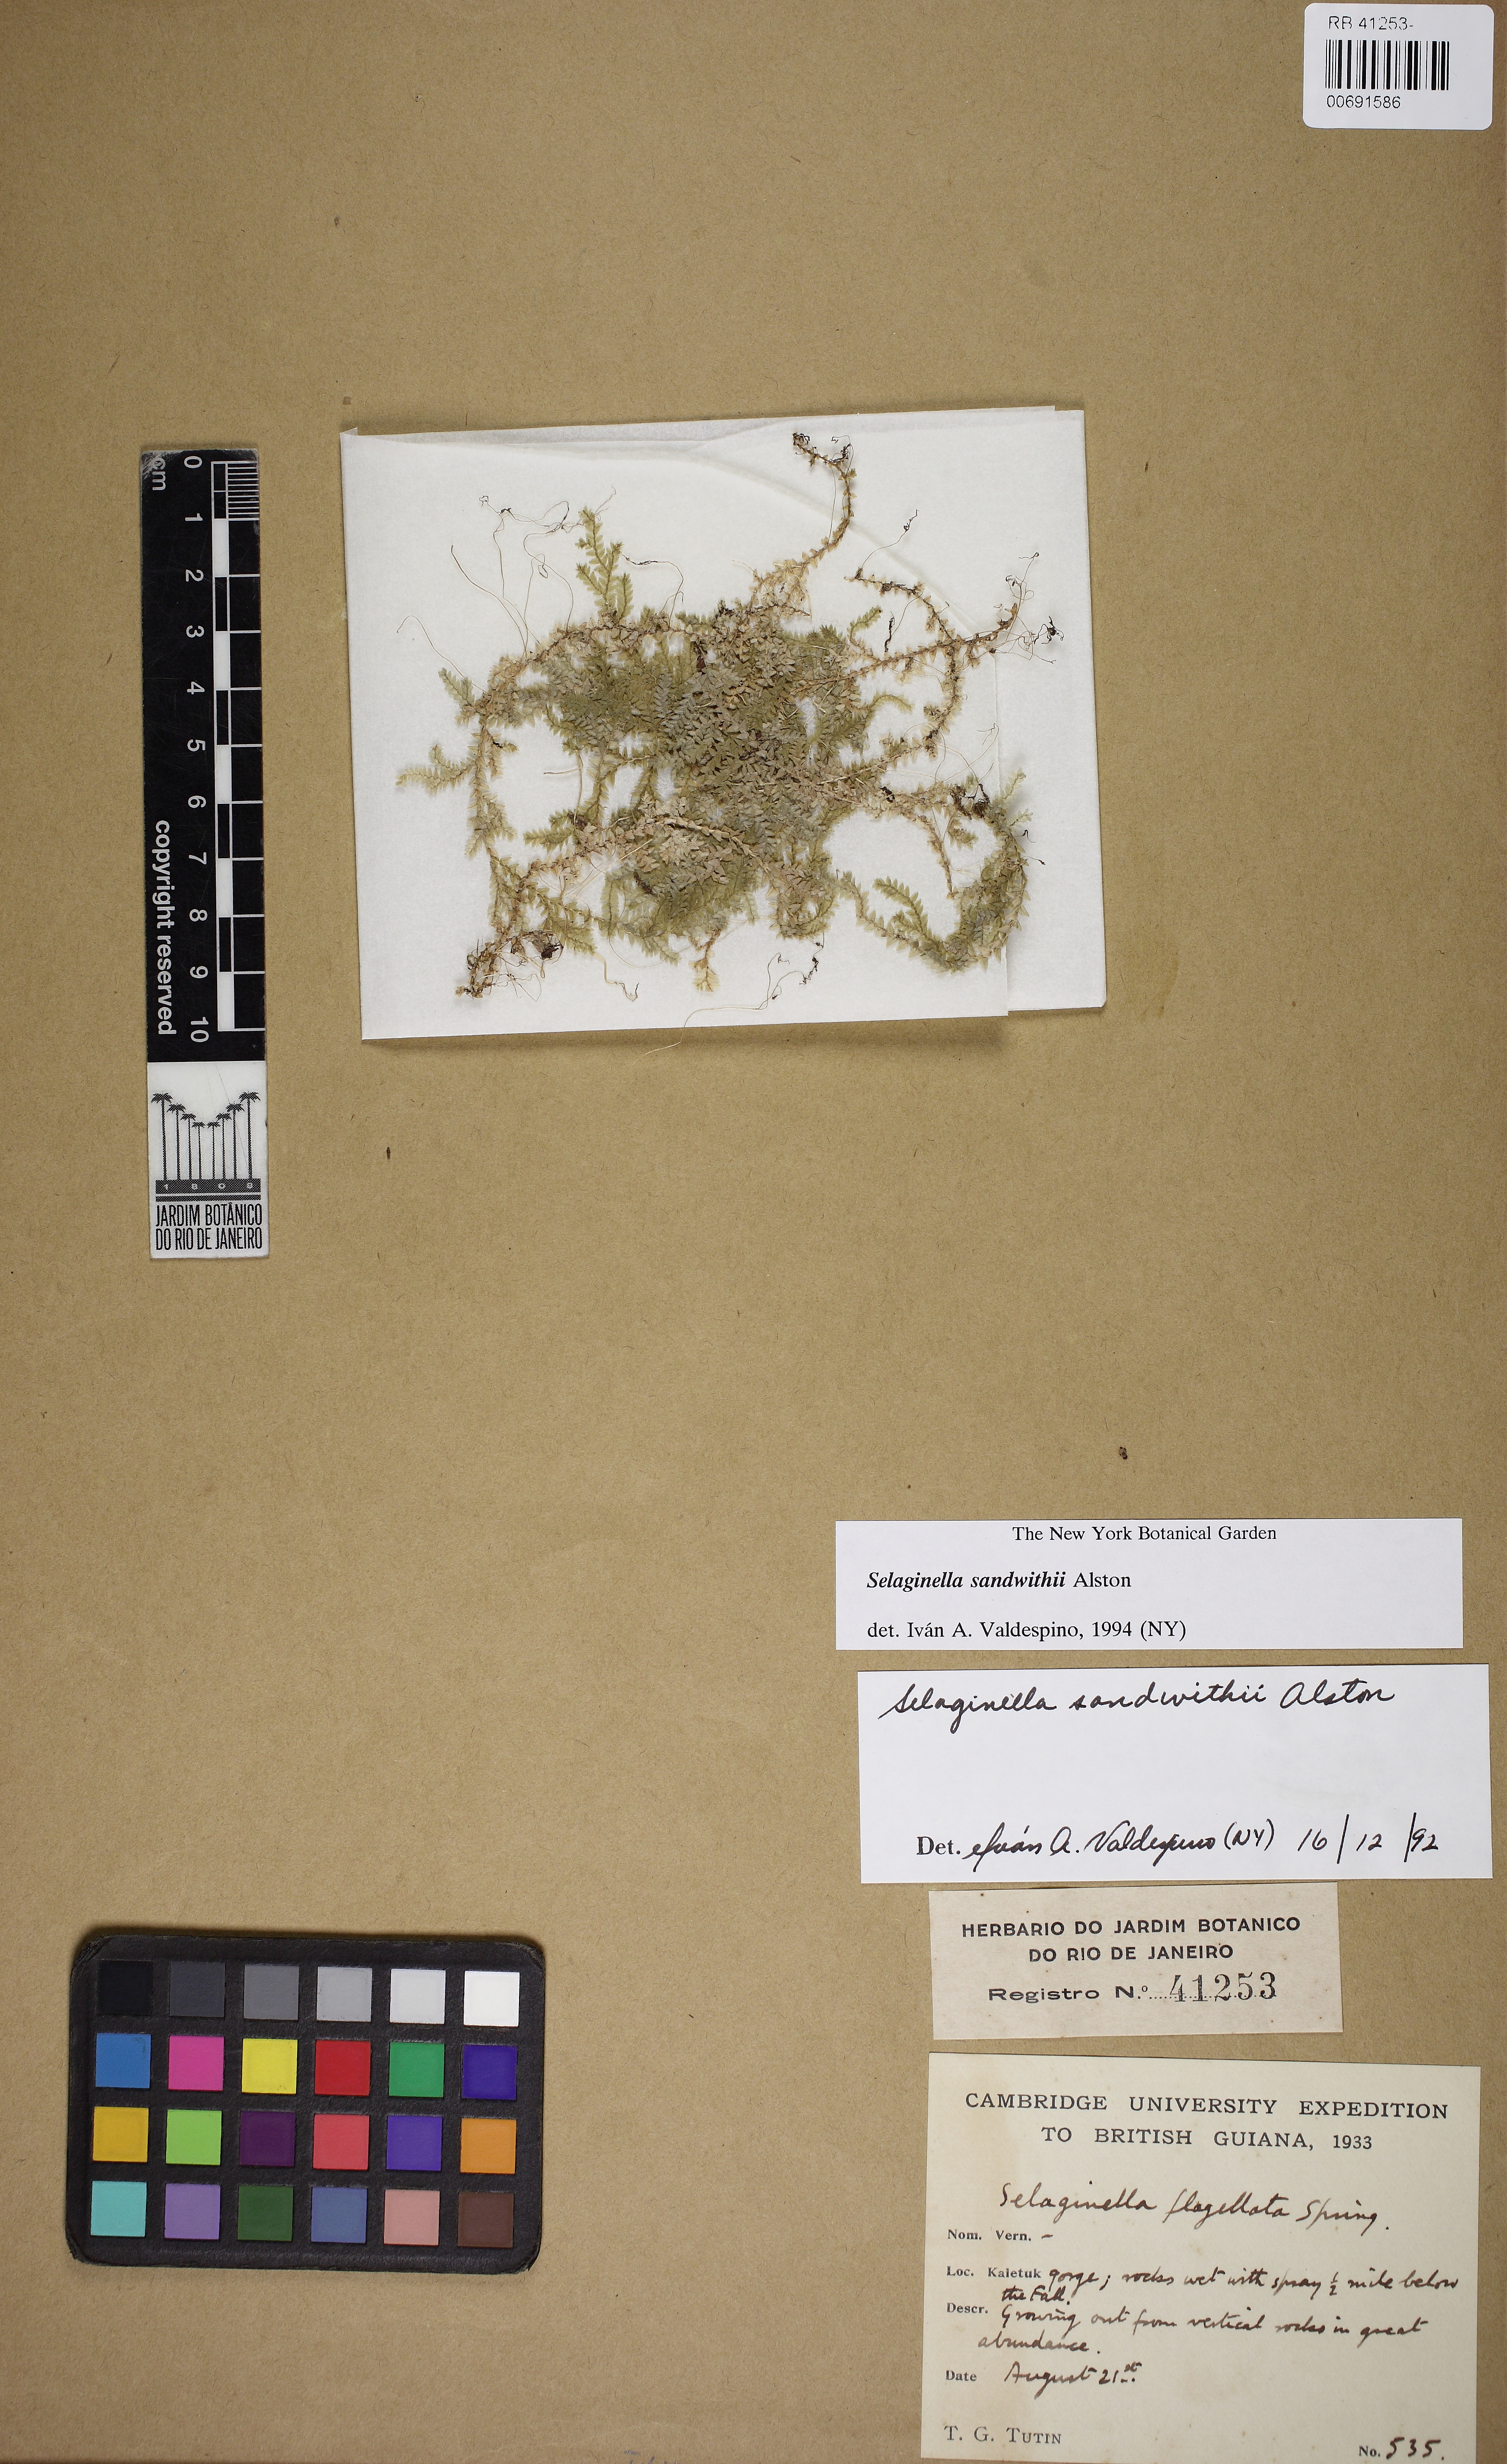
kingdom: Plantae
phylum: Tracheophyta
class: Lycopodiopsida
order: Selaginellales
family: Selaginellaceae
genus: Selaginella
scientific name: Selaginella sandwithii
